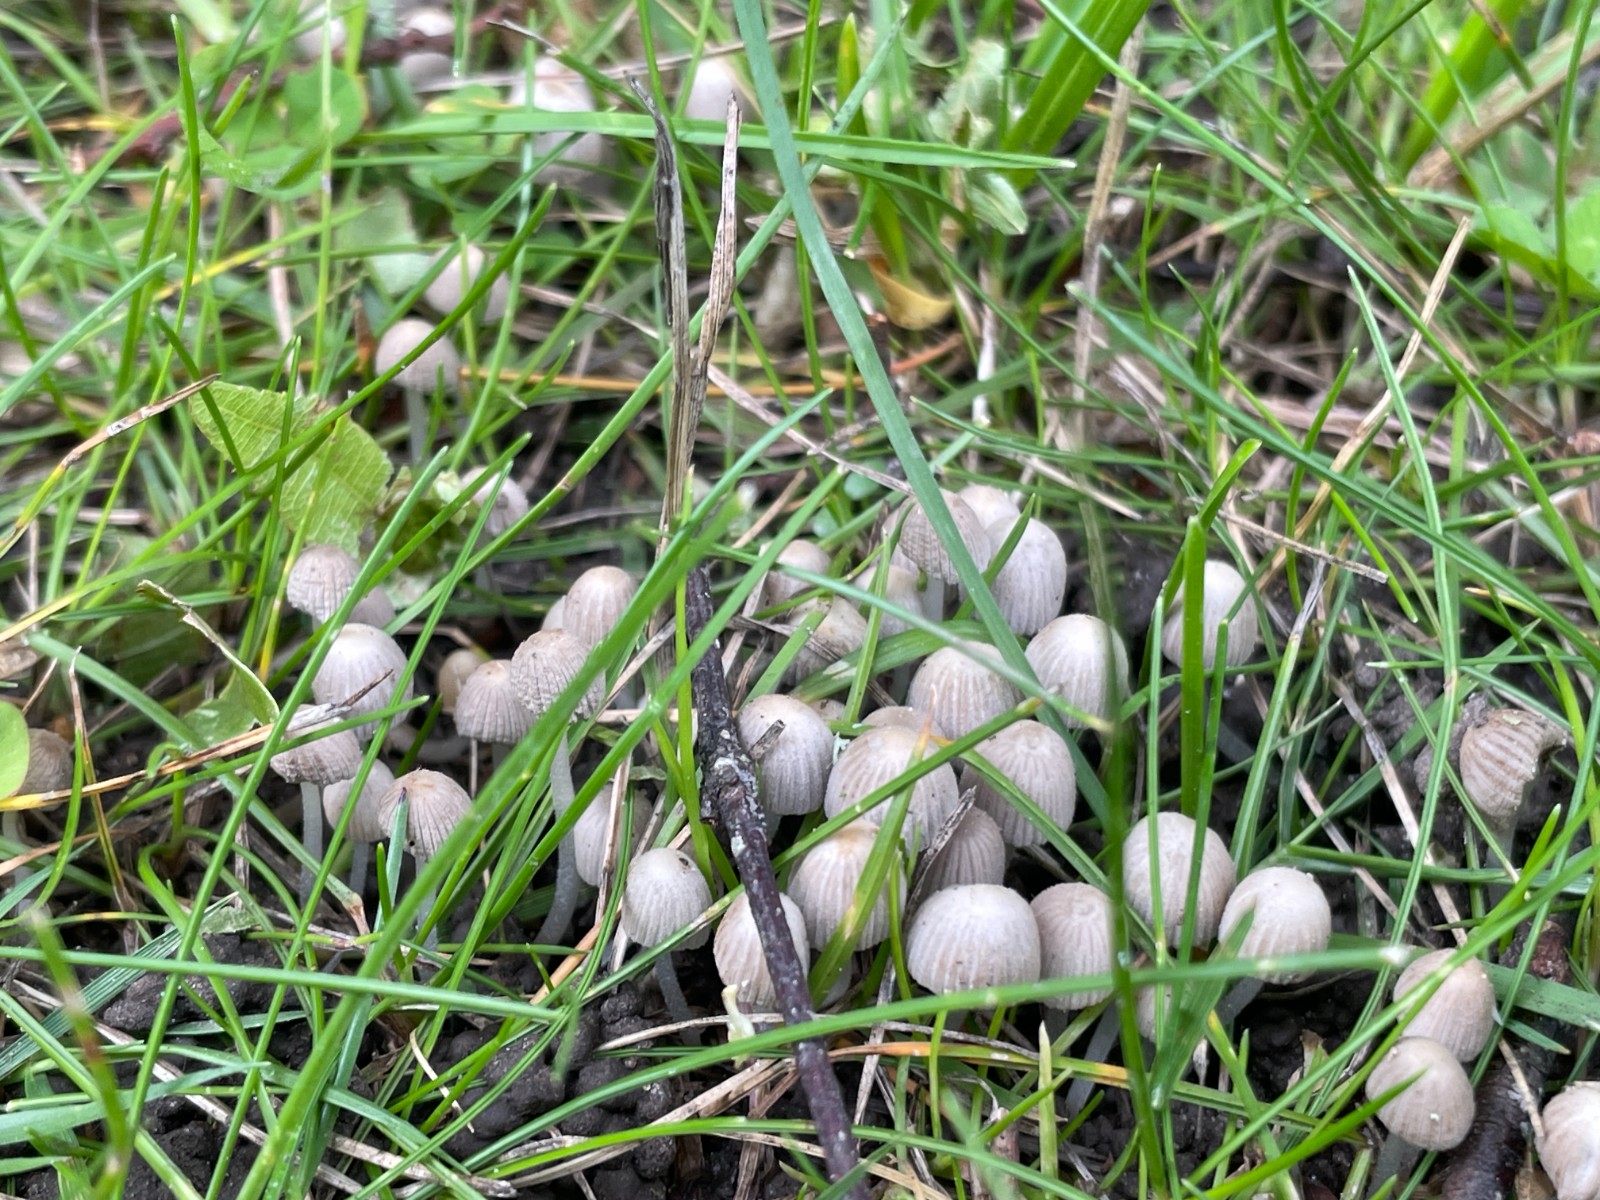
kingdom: Fungi
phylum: Basidiomycota
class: Agaricomycetes
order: Agaricales
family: Psathyrellaceae
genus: Coprinellus
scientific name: Coprinellus disseminatus
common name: bredsået blækhat
